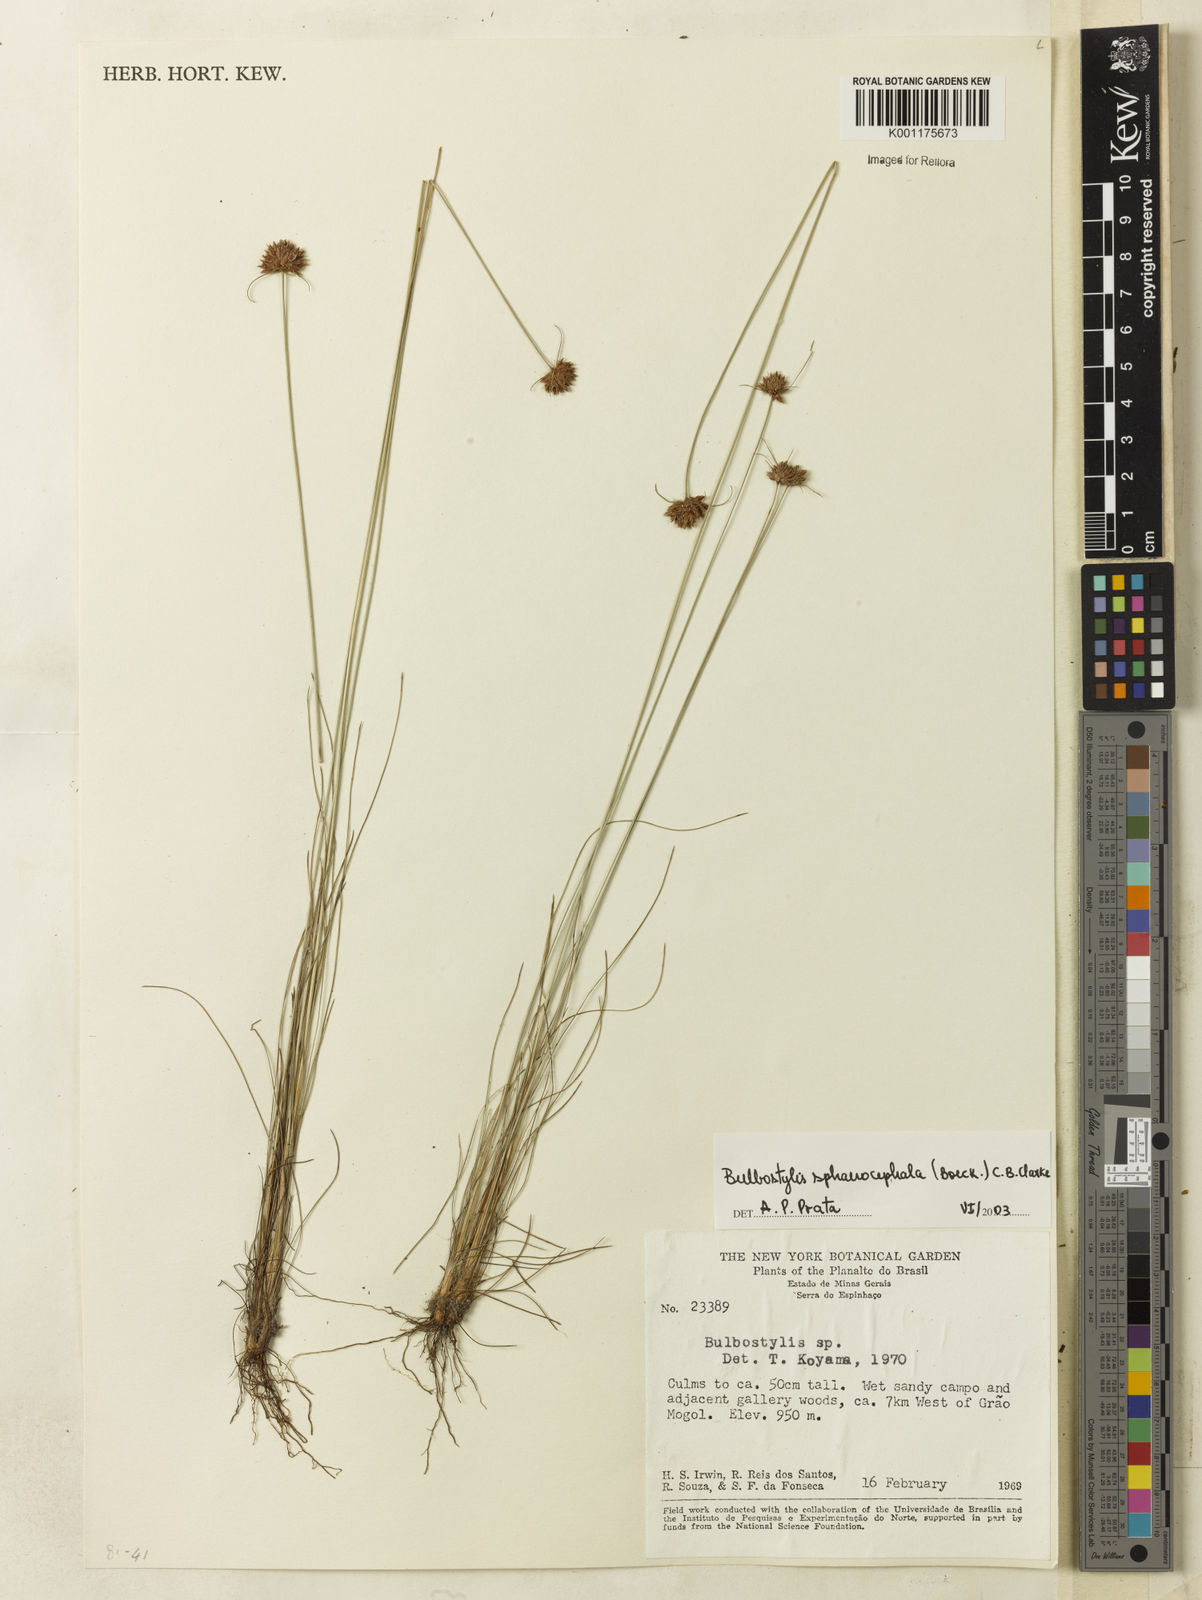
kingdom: Plantae
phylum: Tracheophyta
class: Liliopsida
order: Poales
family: Cyperaceae
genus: Bulbostylis
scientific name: Bulbostylis sphaerocephala
